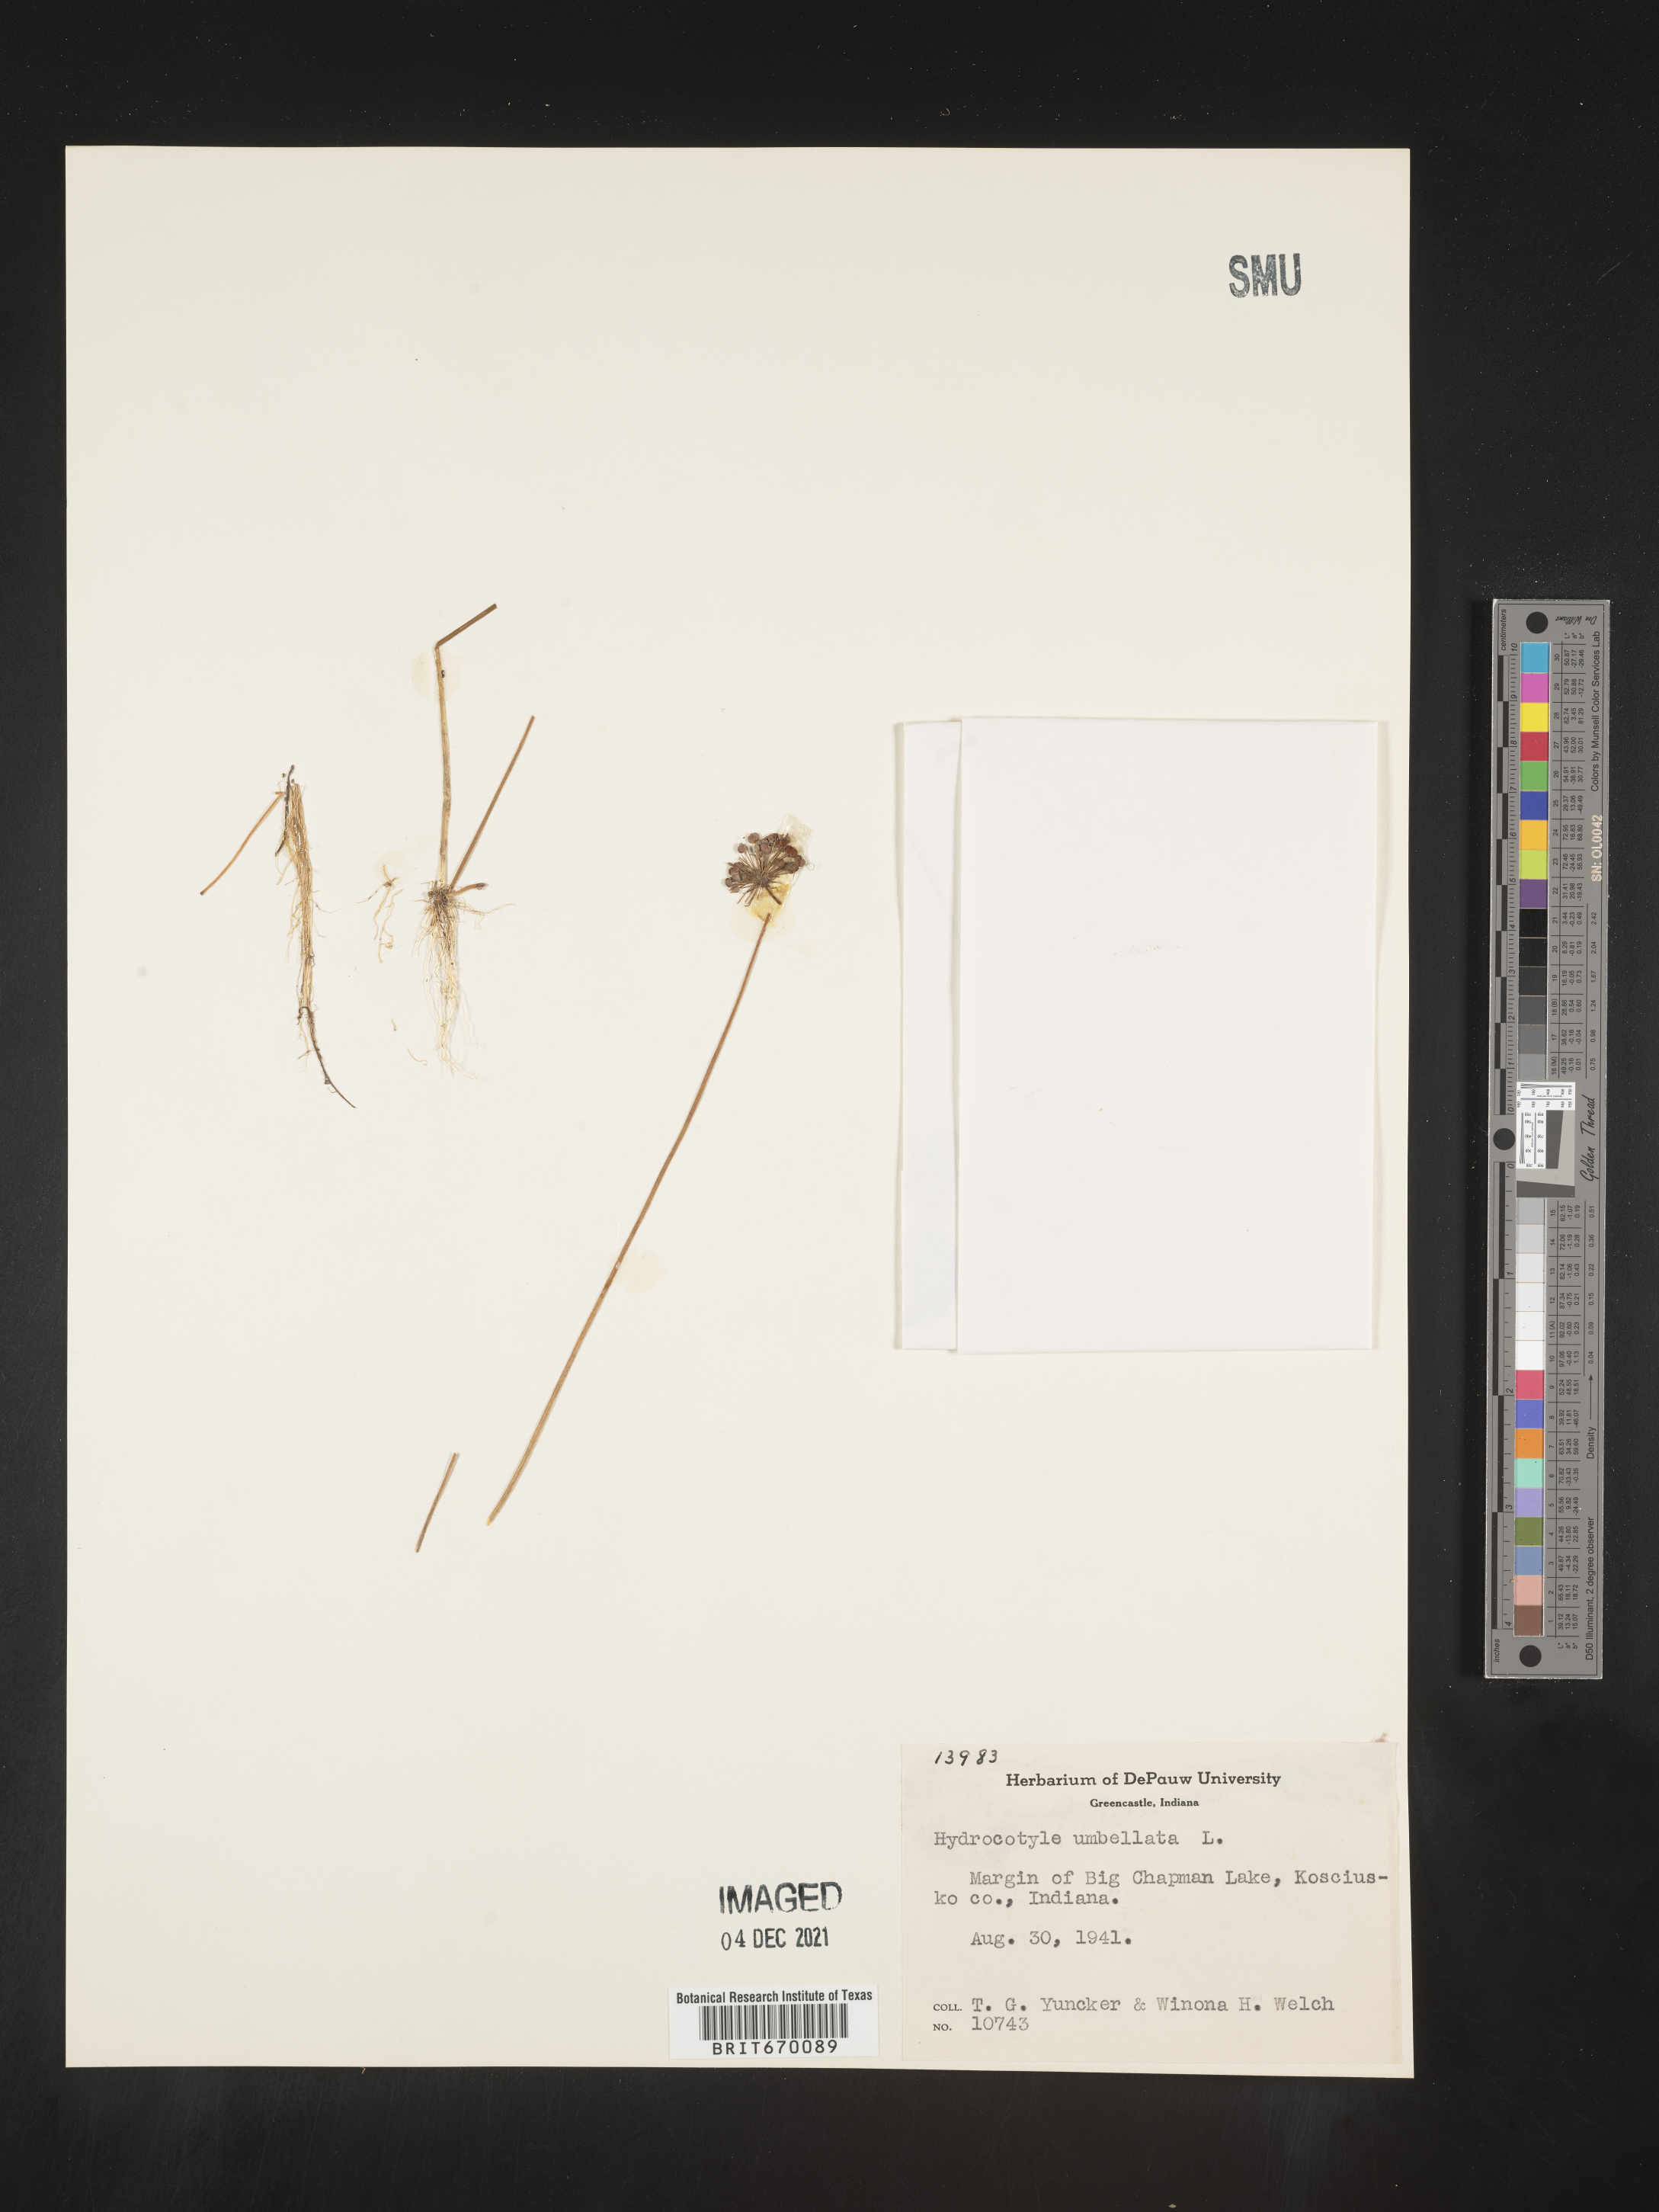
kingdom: Plantae
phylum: Tracheophyta
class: Magnoliopsida
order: Apiales
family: Araliaceae
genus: Hydrocotyle
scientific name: Hydrocotyle umbellata
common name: Water pennywort
